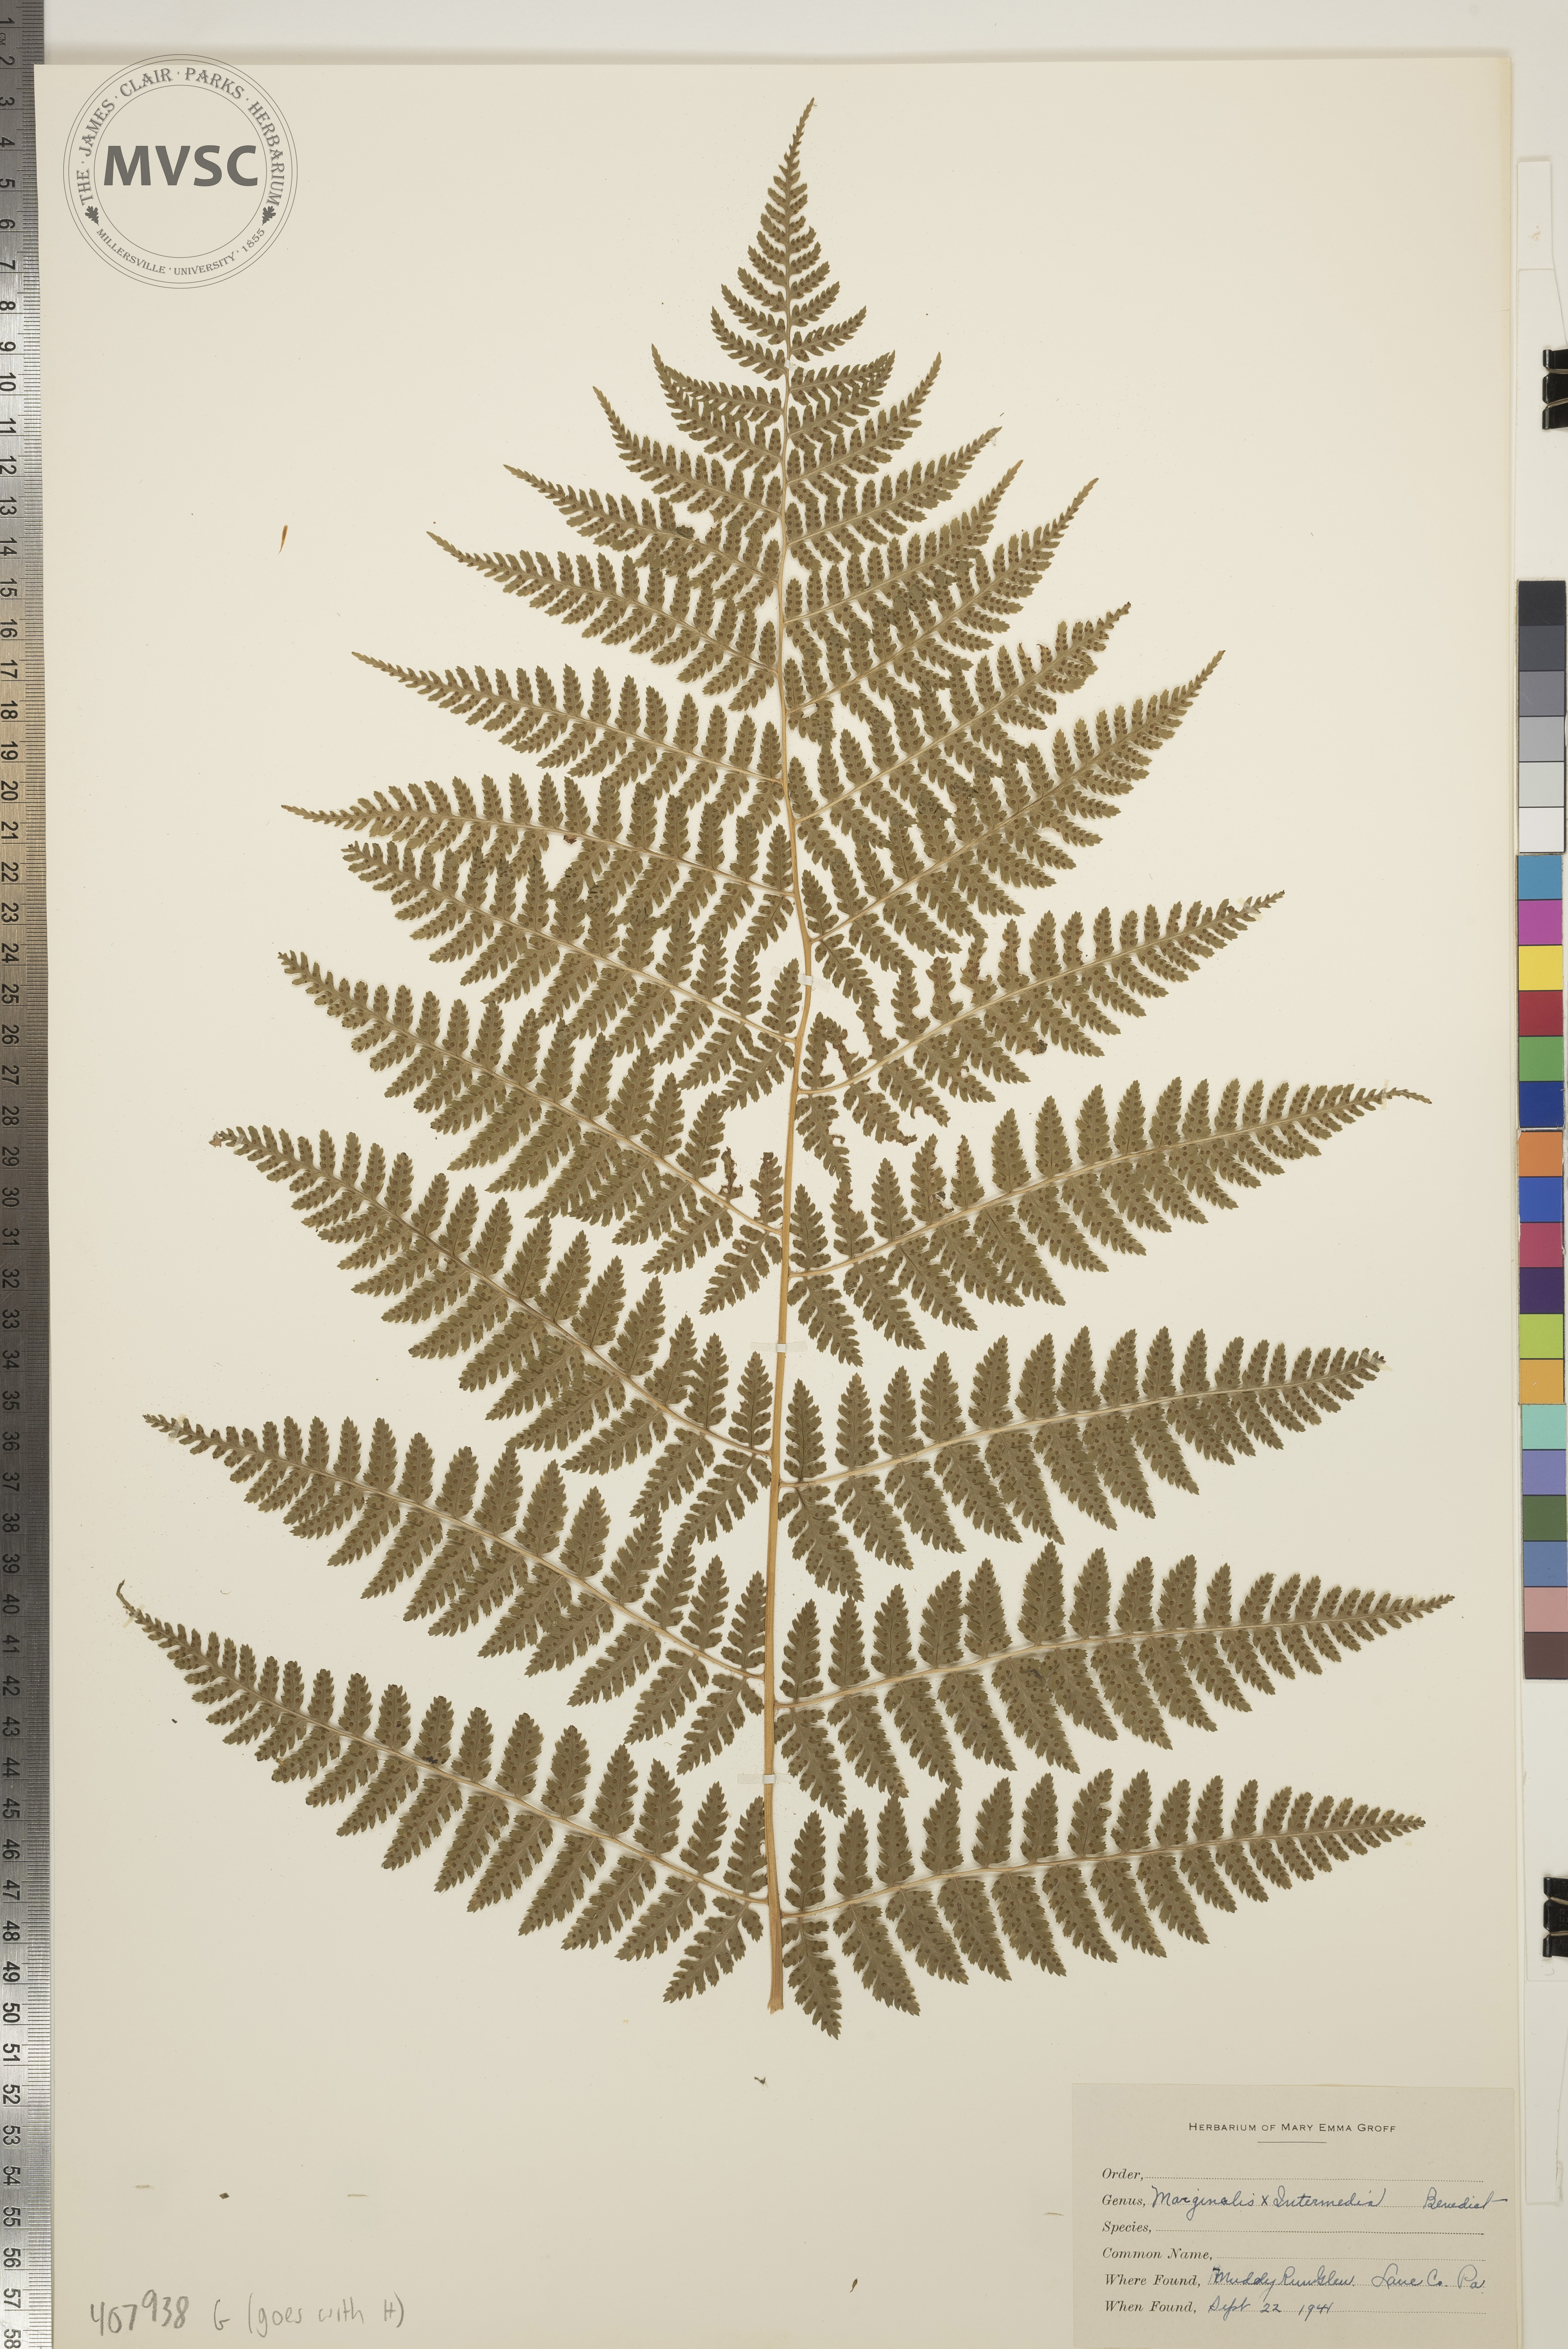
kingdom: Plantae
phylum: Tracheophyta
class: Polypodiopsida
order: Polypodiales
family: Dryopteridaceae
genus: Dryopteris
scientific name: Dryopteris
